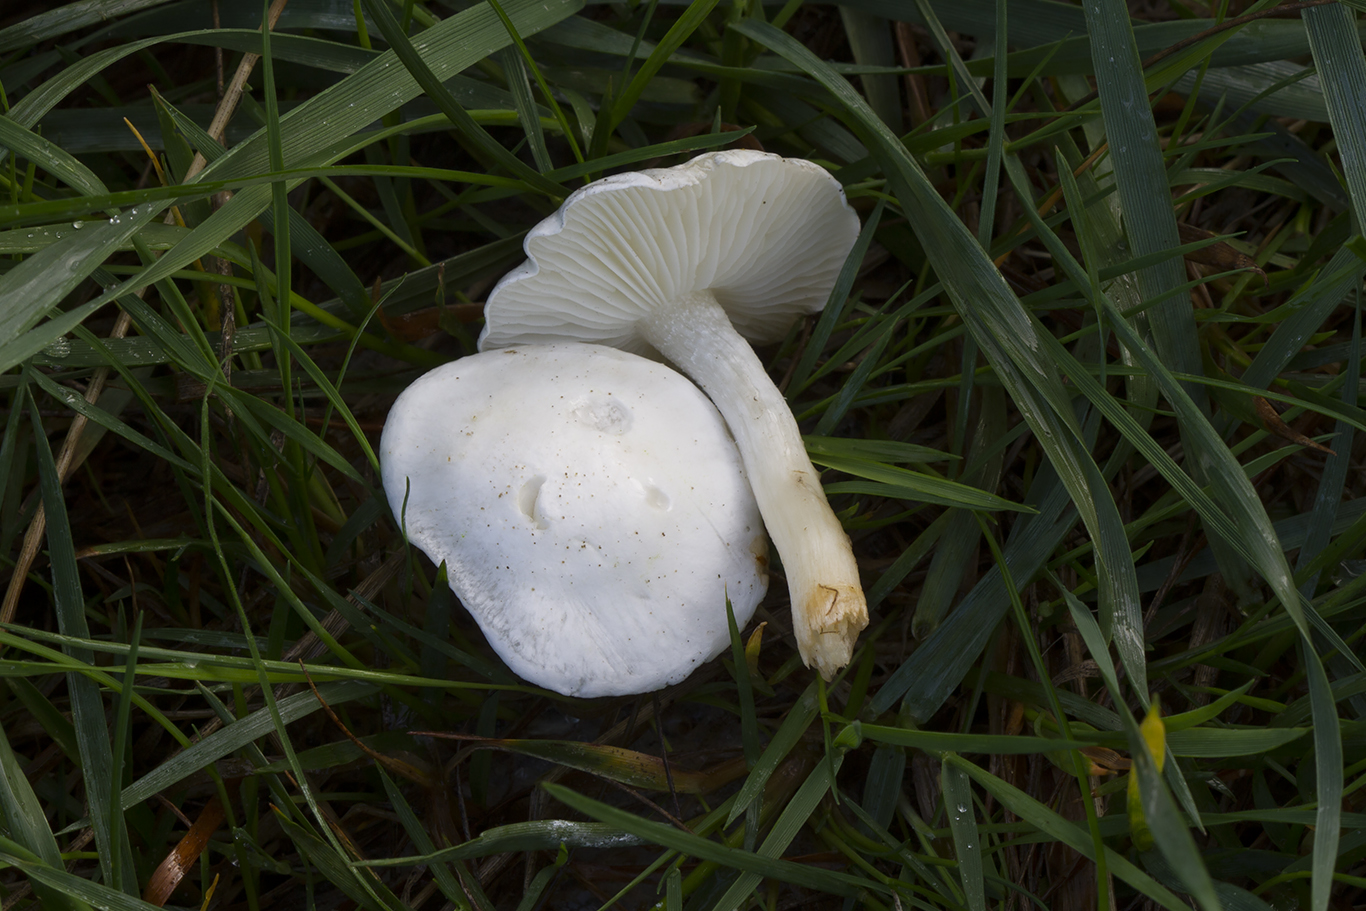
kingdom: Fungi
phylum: Basidiomycota
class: Agaricomycetes
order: Agaricales
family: Lyophyllaceae
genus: Tricholomella
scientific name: Tricholomella constricta
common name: ring-fagerhat
